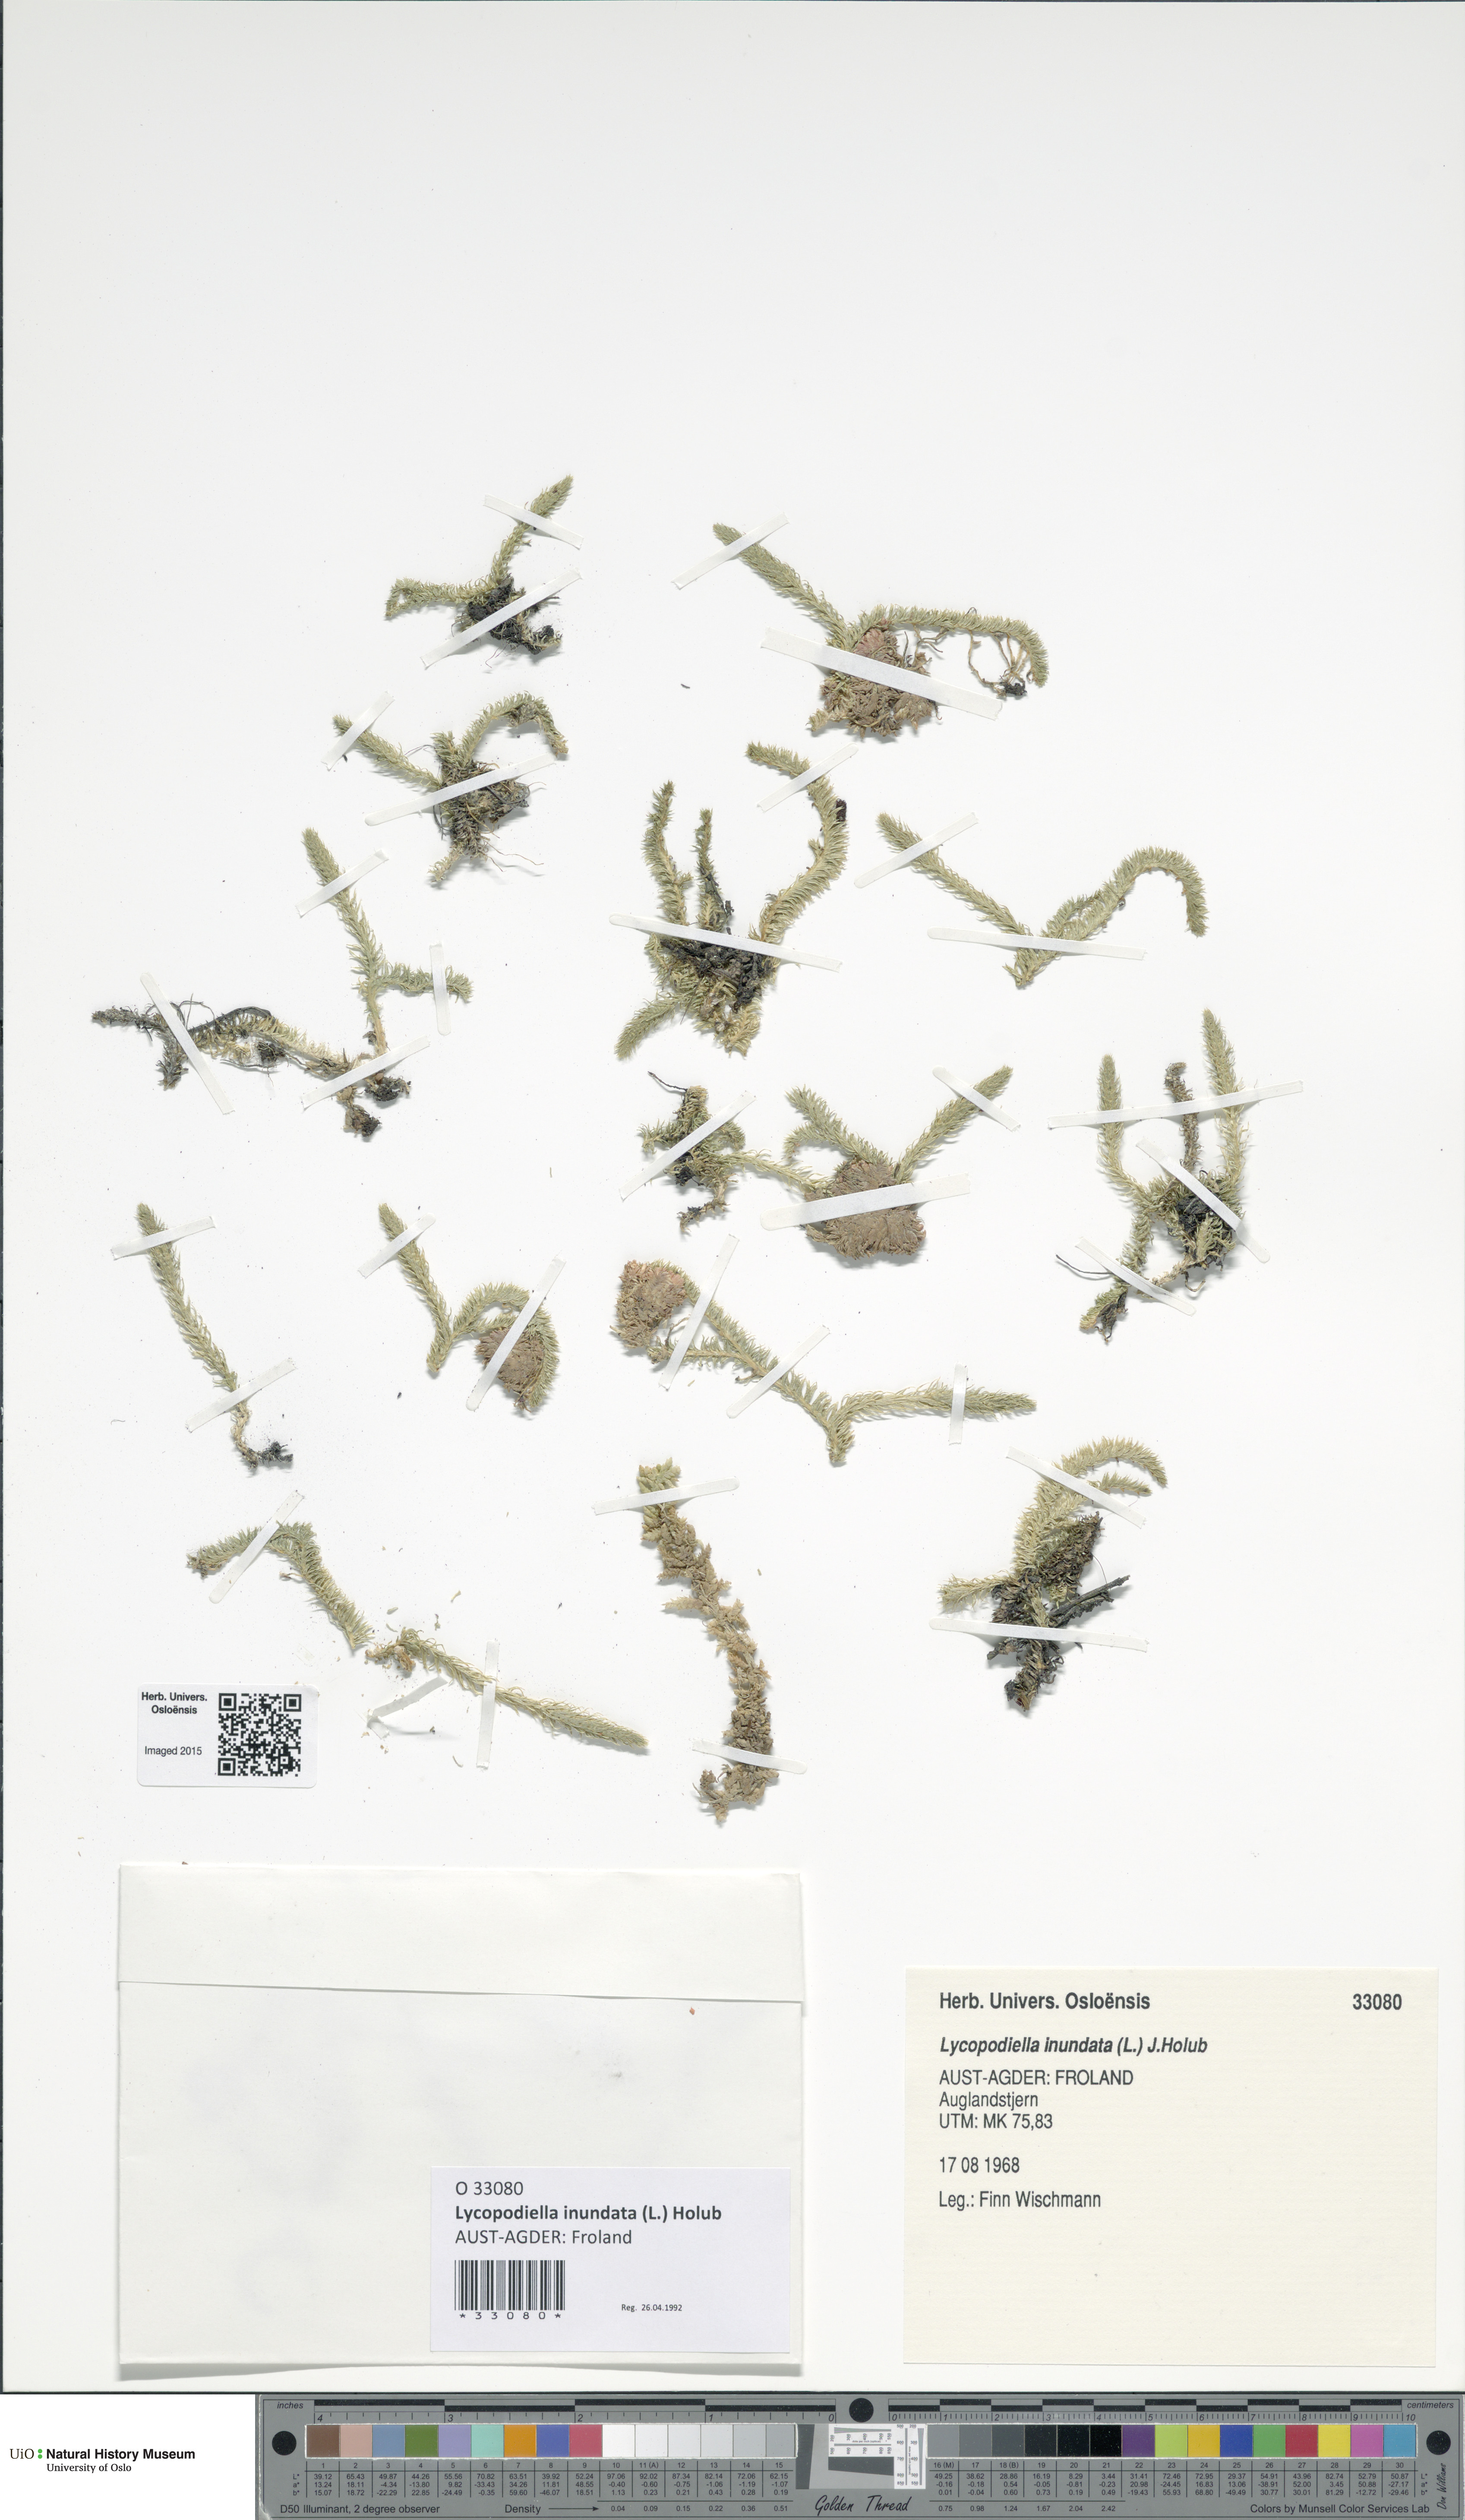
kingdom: Plantae
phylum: Tracheophyta
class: Lycopodiopsida
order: Lycopodiales
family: Lycopodiaceae
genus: Lycopodiella
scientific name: Lycopodiella inundata
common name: Marsh clubmoss
